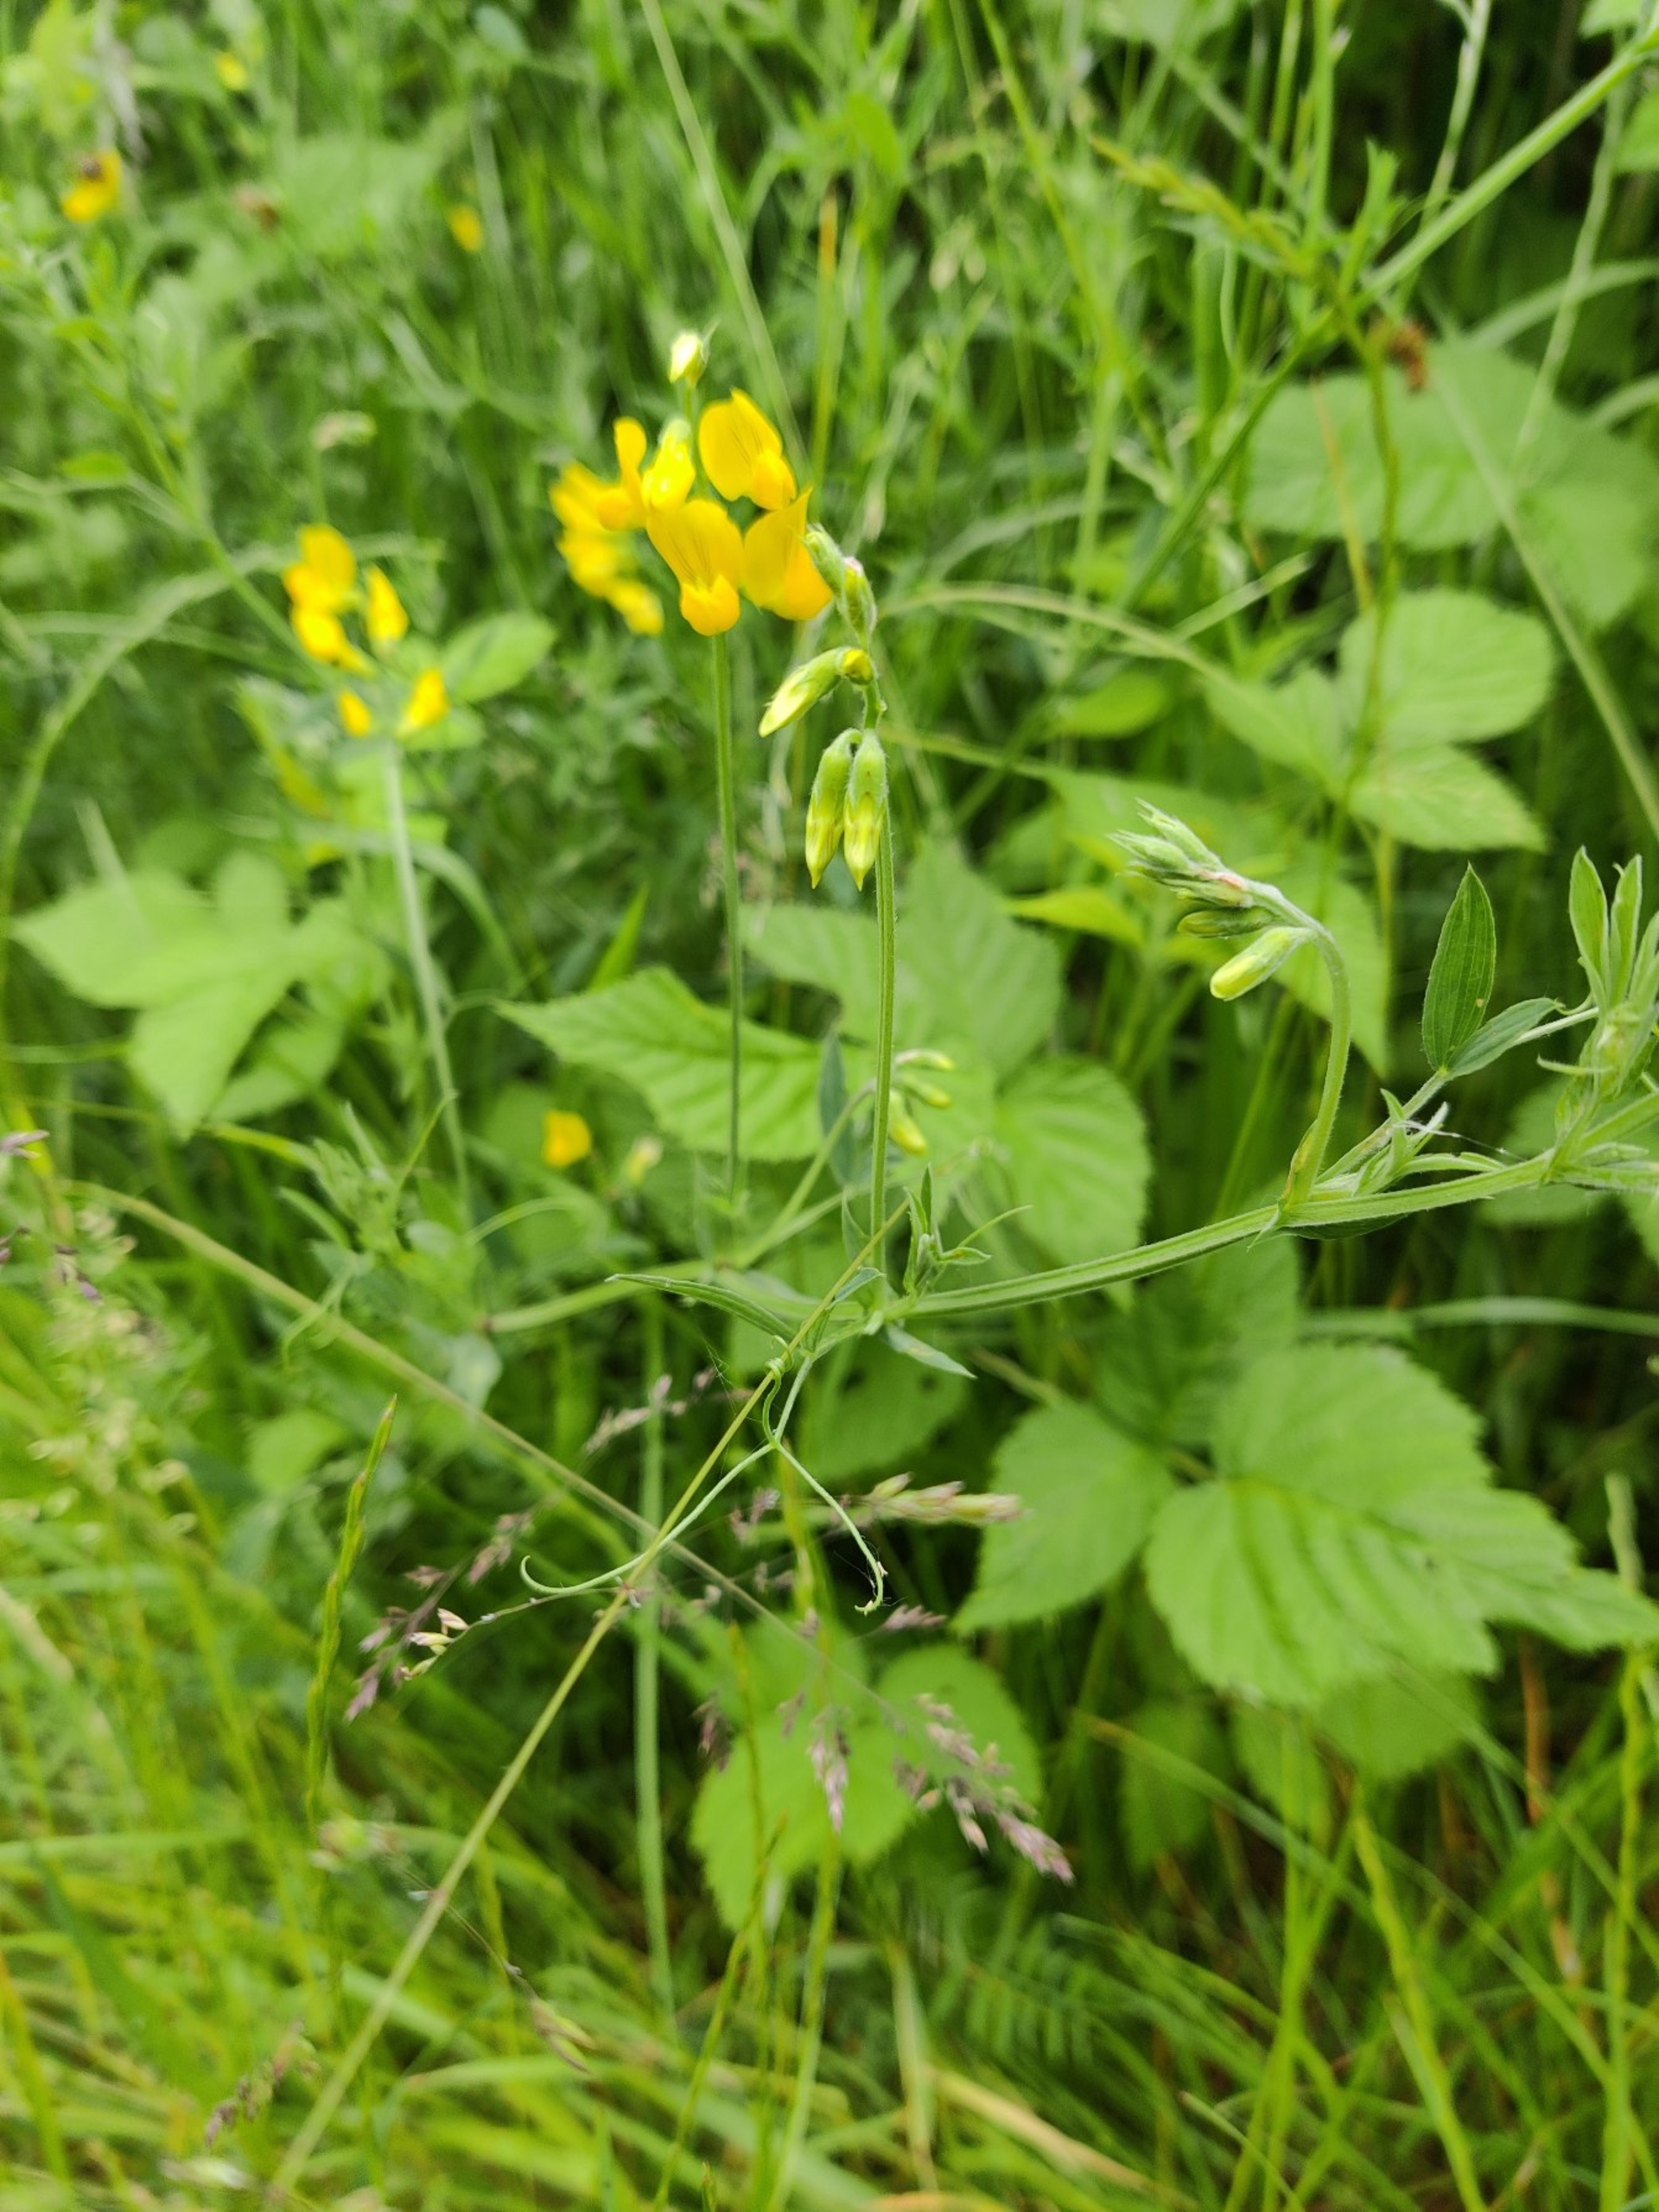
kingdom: Plantae
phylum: Tracheophyta
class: Magnoliopsida
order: Fabales
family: Fabaceae
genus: Lathyrus
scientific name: Lathyrus pratensis
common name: Gul fladbælg
